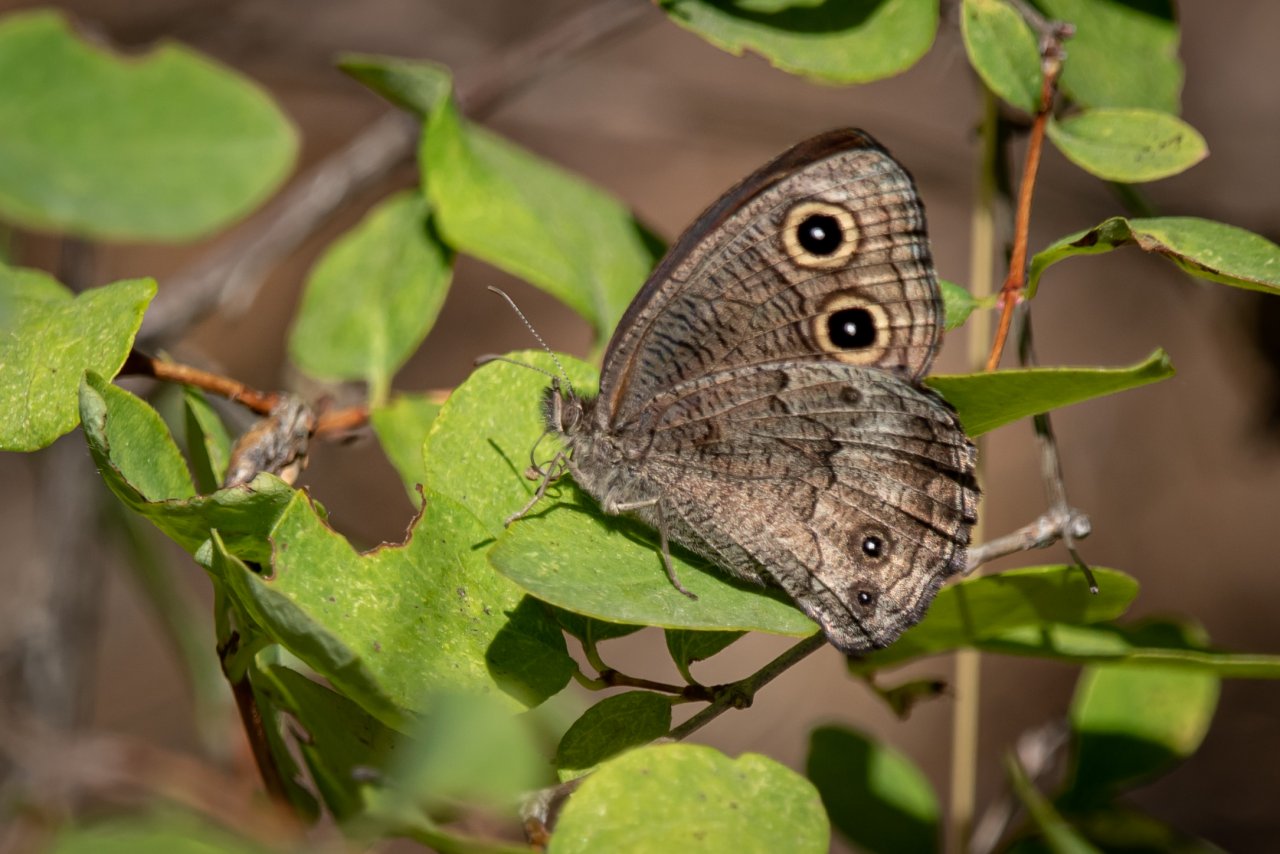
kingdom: Animalia
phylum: Arthropoda
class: Insecta
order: Lepidoptera
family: Nymphalidae
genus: Cercyonis
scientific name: Cercyonis pegala
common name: Common Wood-Nymph
